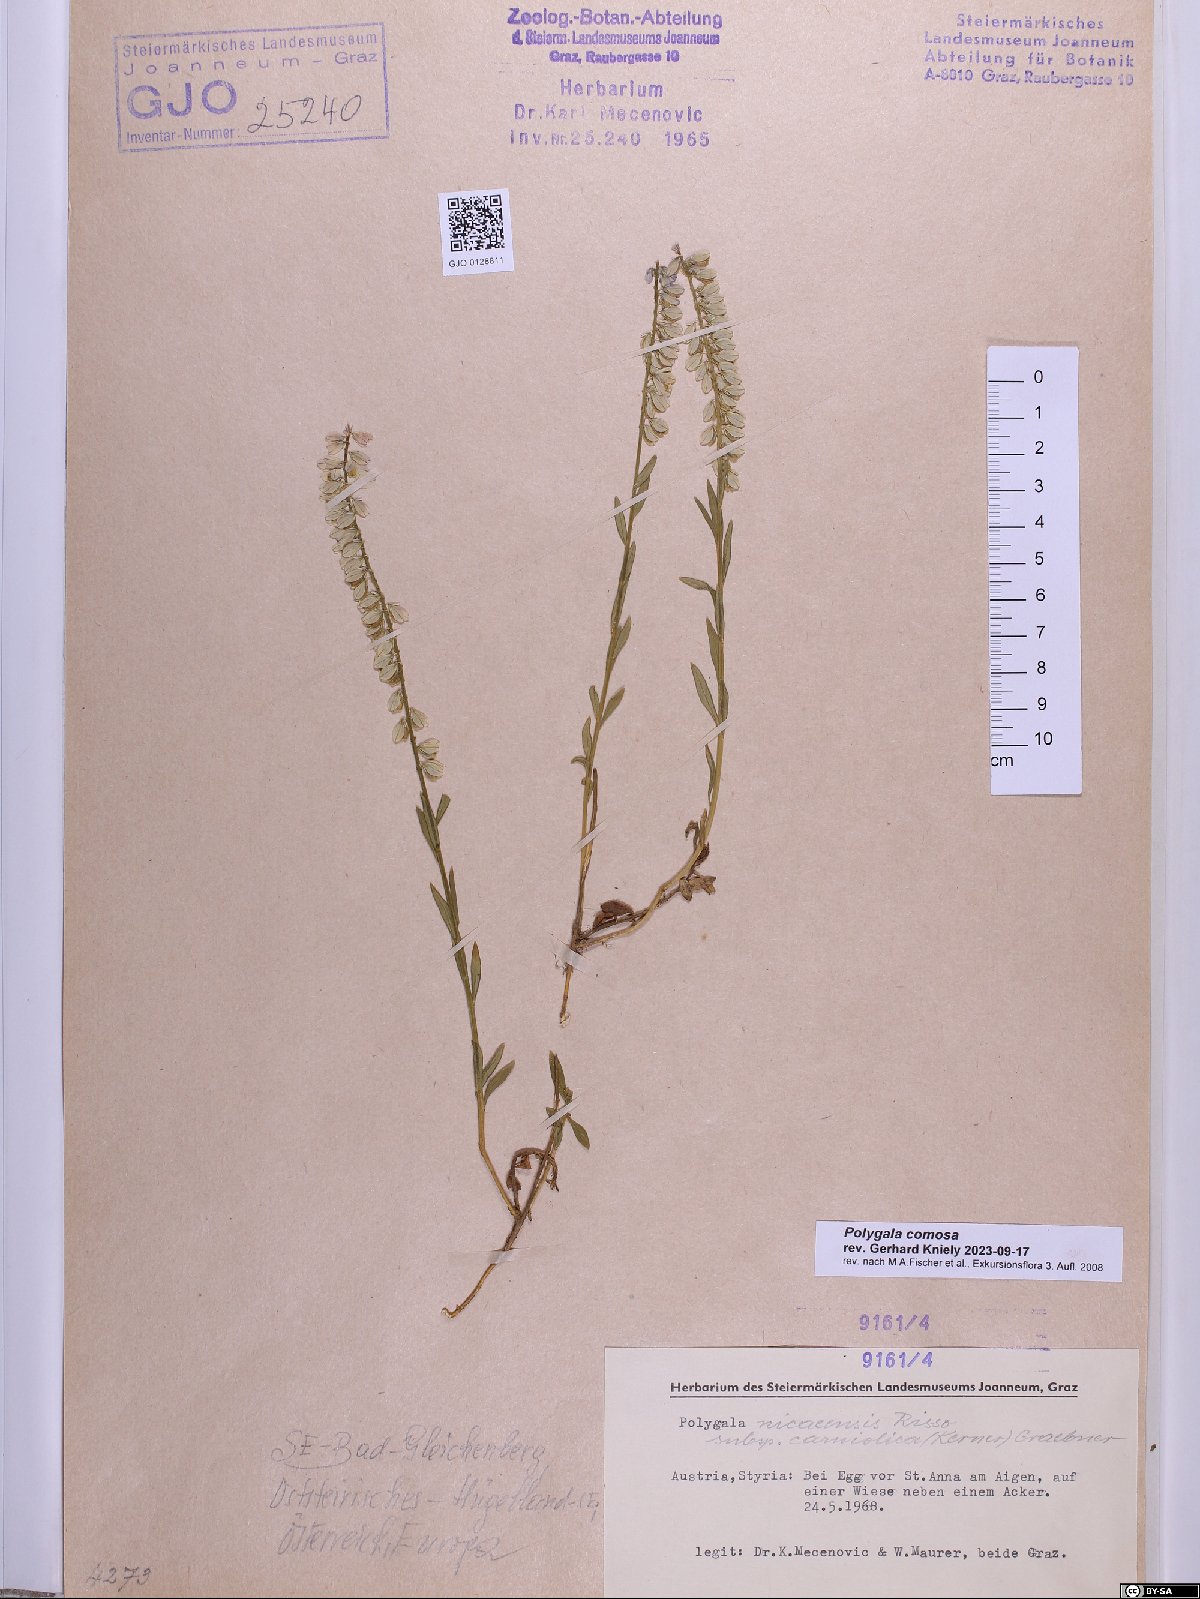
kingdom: Plantae
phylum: Tracheophyta
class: Magnoliopsida
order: Fabales
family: Polygalaceae
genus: Polygala
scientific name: Polygala comosa
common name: Tufted milkwort
